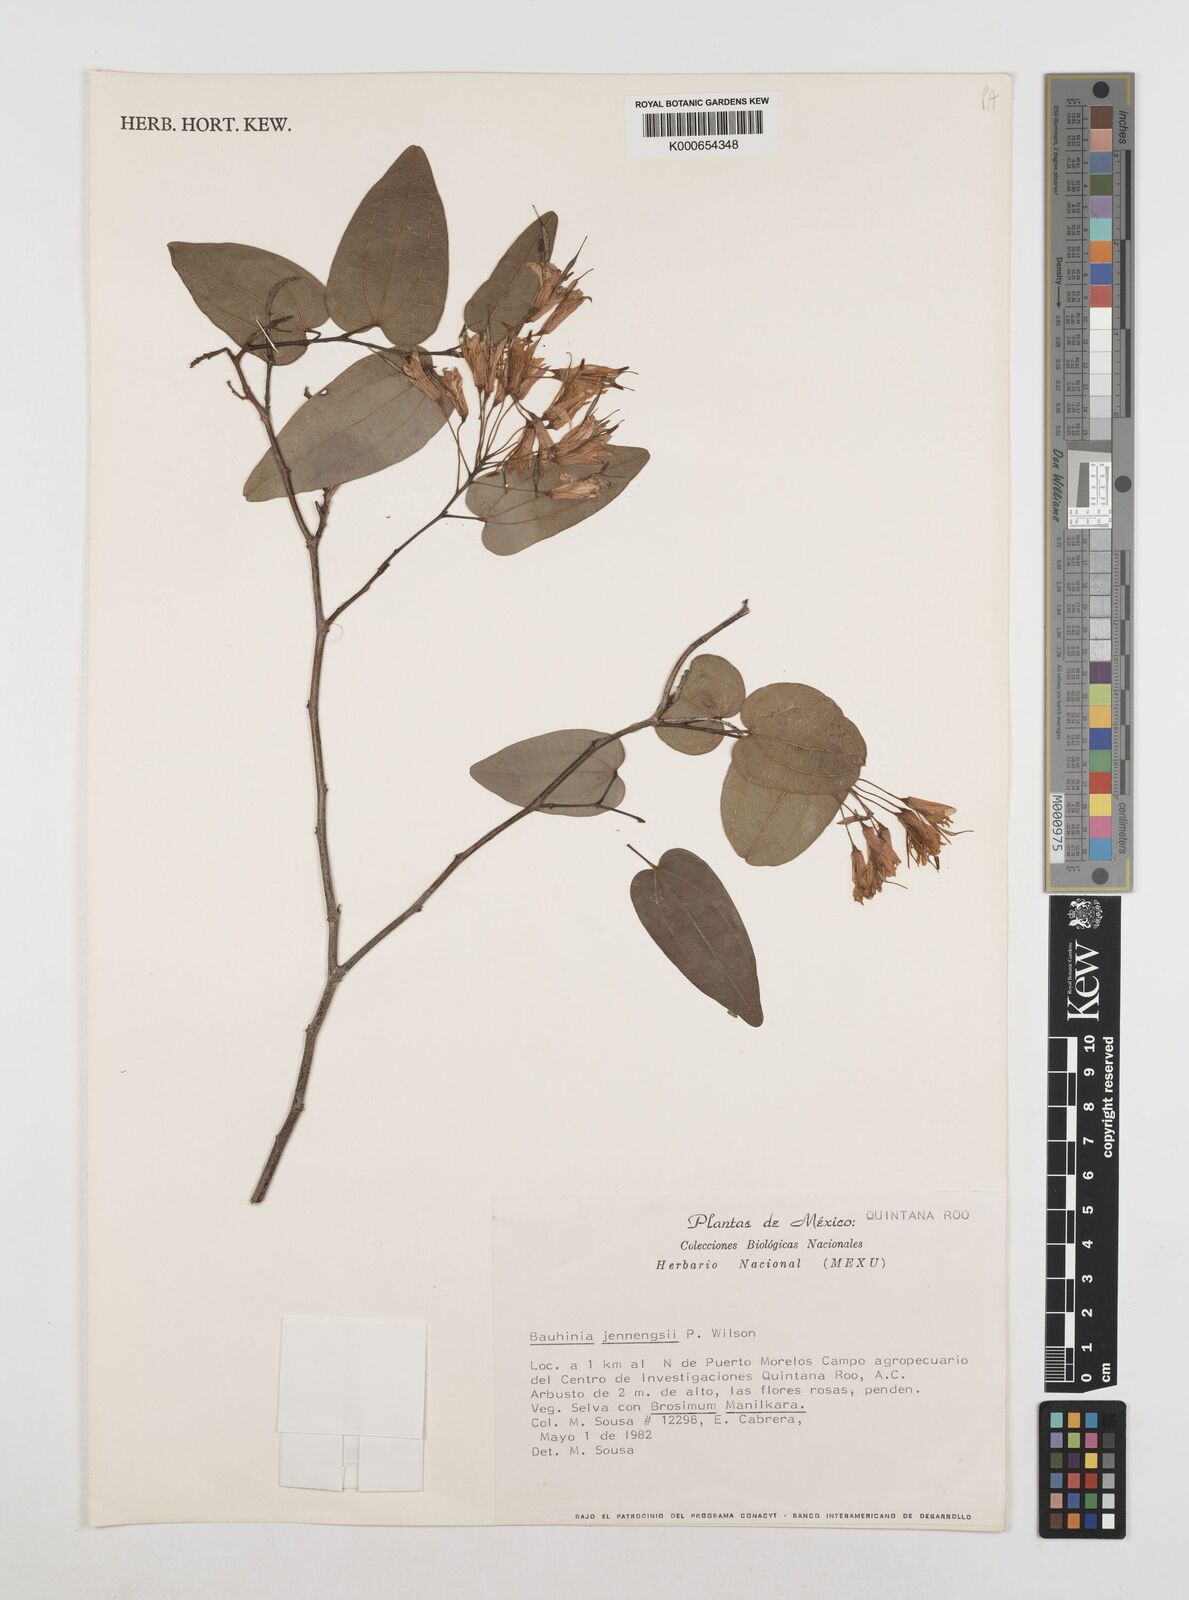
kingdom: Plantae
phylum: Tracheophyta
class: Magnoliopsida
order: Fabales
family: Fabaceae
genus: Bauhinia
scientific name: Bauhinia jenningsii
